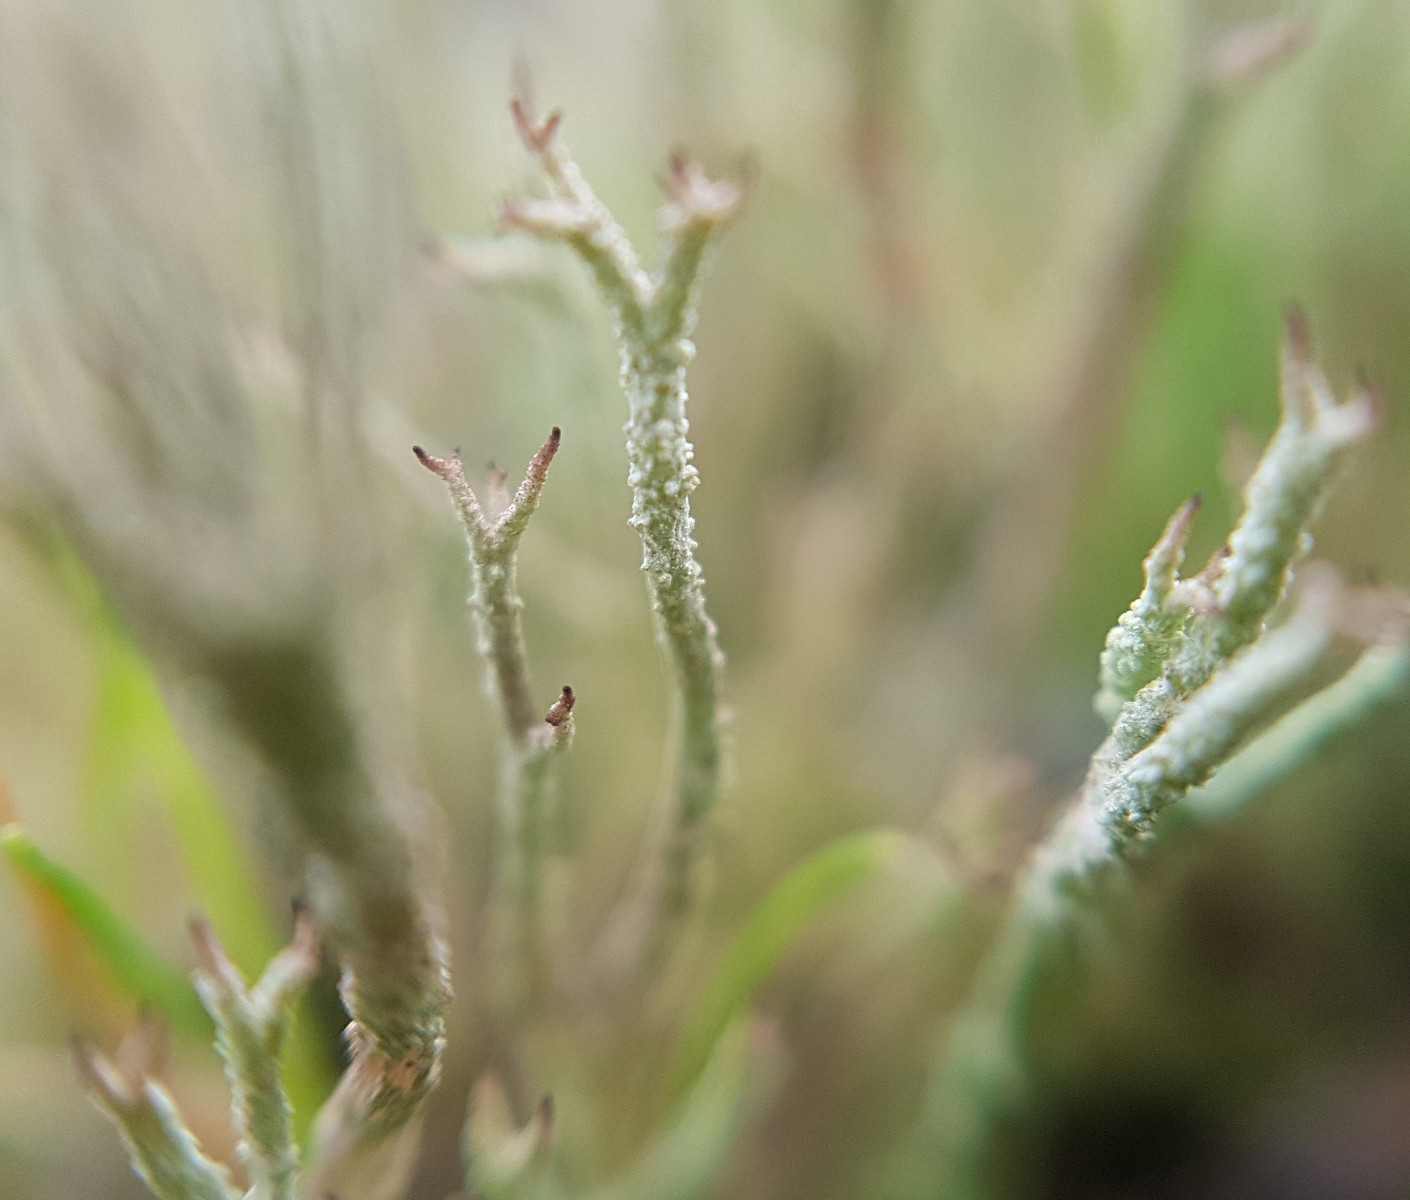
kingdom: Fungi
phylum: Ascomycota
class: Lecanoromycetes
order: Lecanorales
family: Cladoniaceae
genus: Cladonia
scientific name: Cladonia scabriuscula
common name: ru bægerlav
